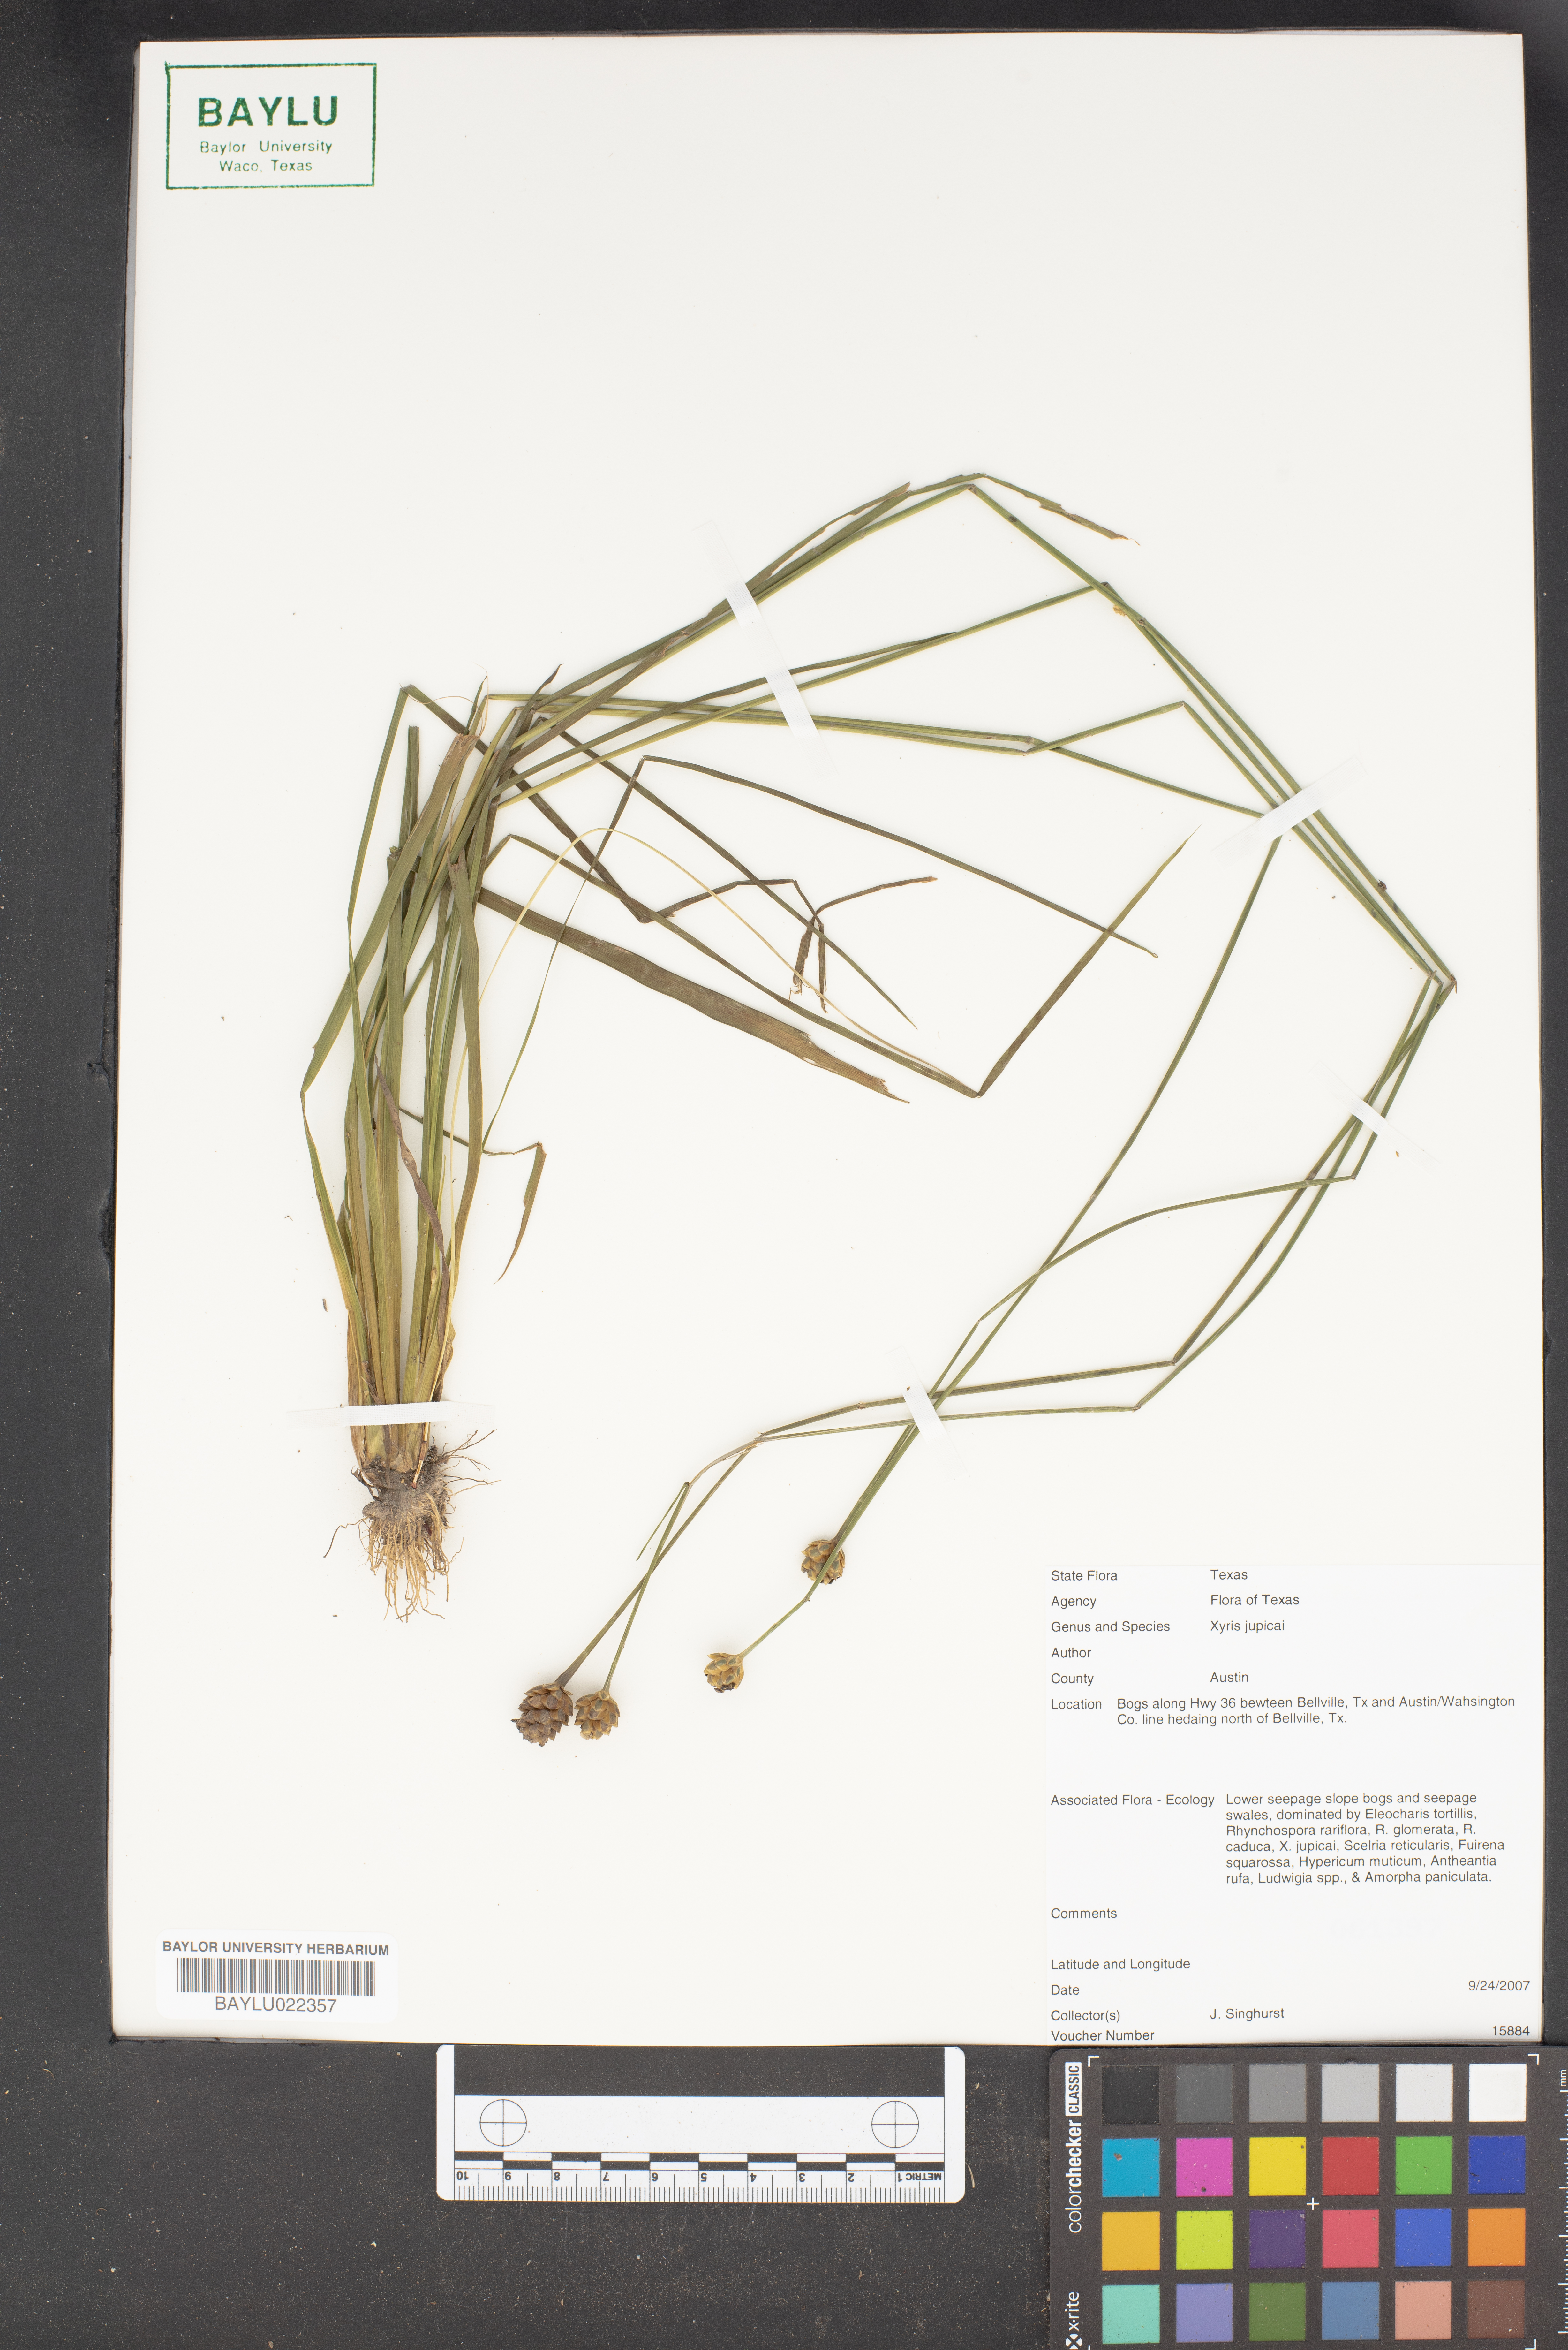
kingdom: Plantae
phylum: Tracheophyta
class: Liliopsida
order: Poales
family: Xyridaceae
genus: Xyris
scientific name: Xyris jupicai
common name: Richard's yelloweyed grass
